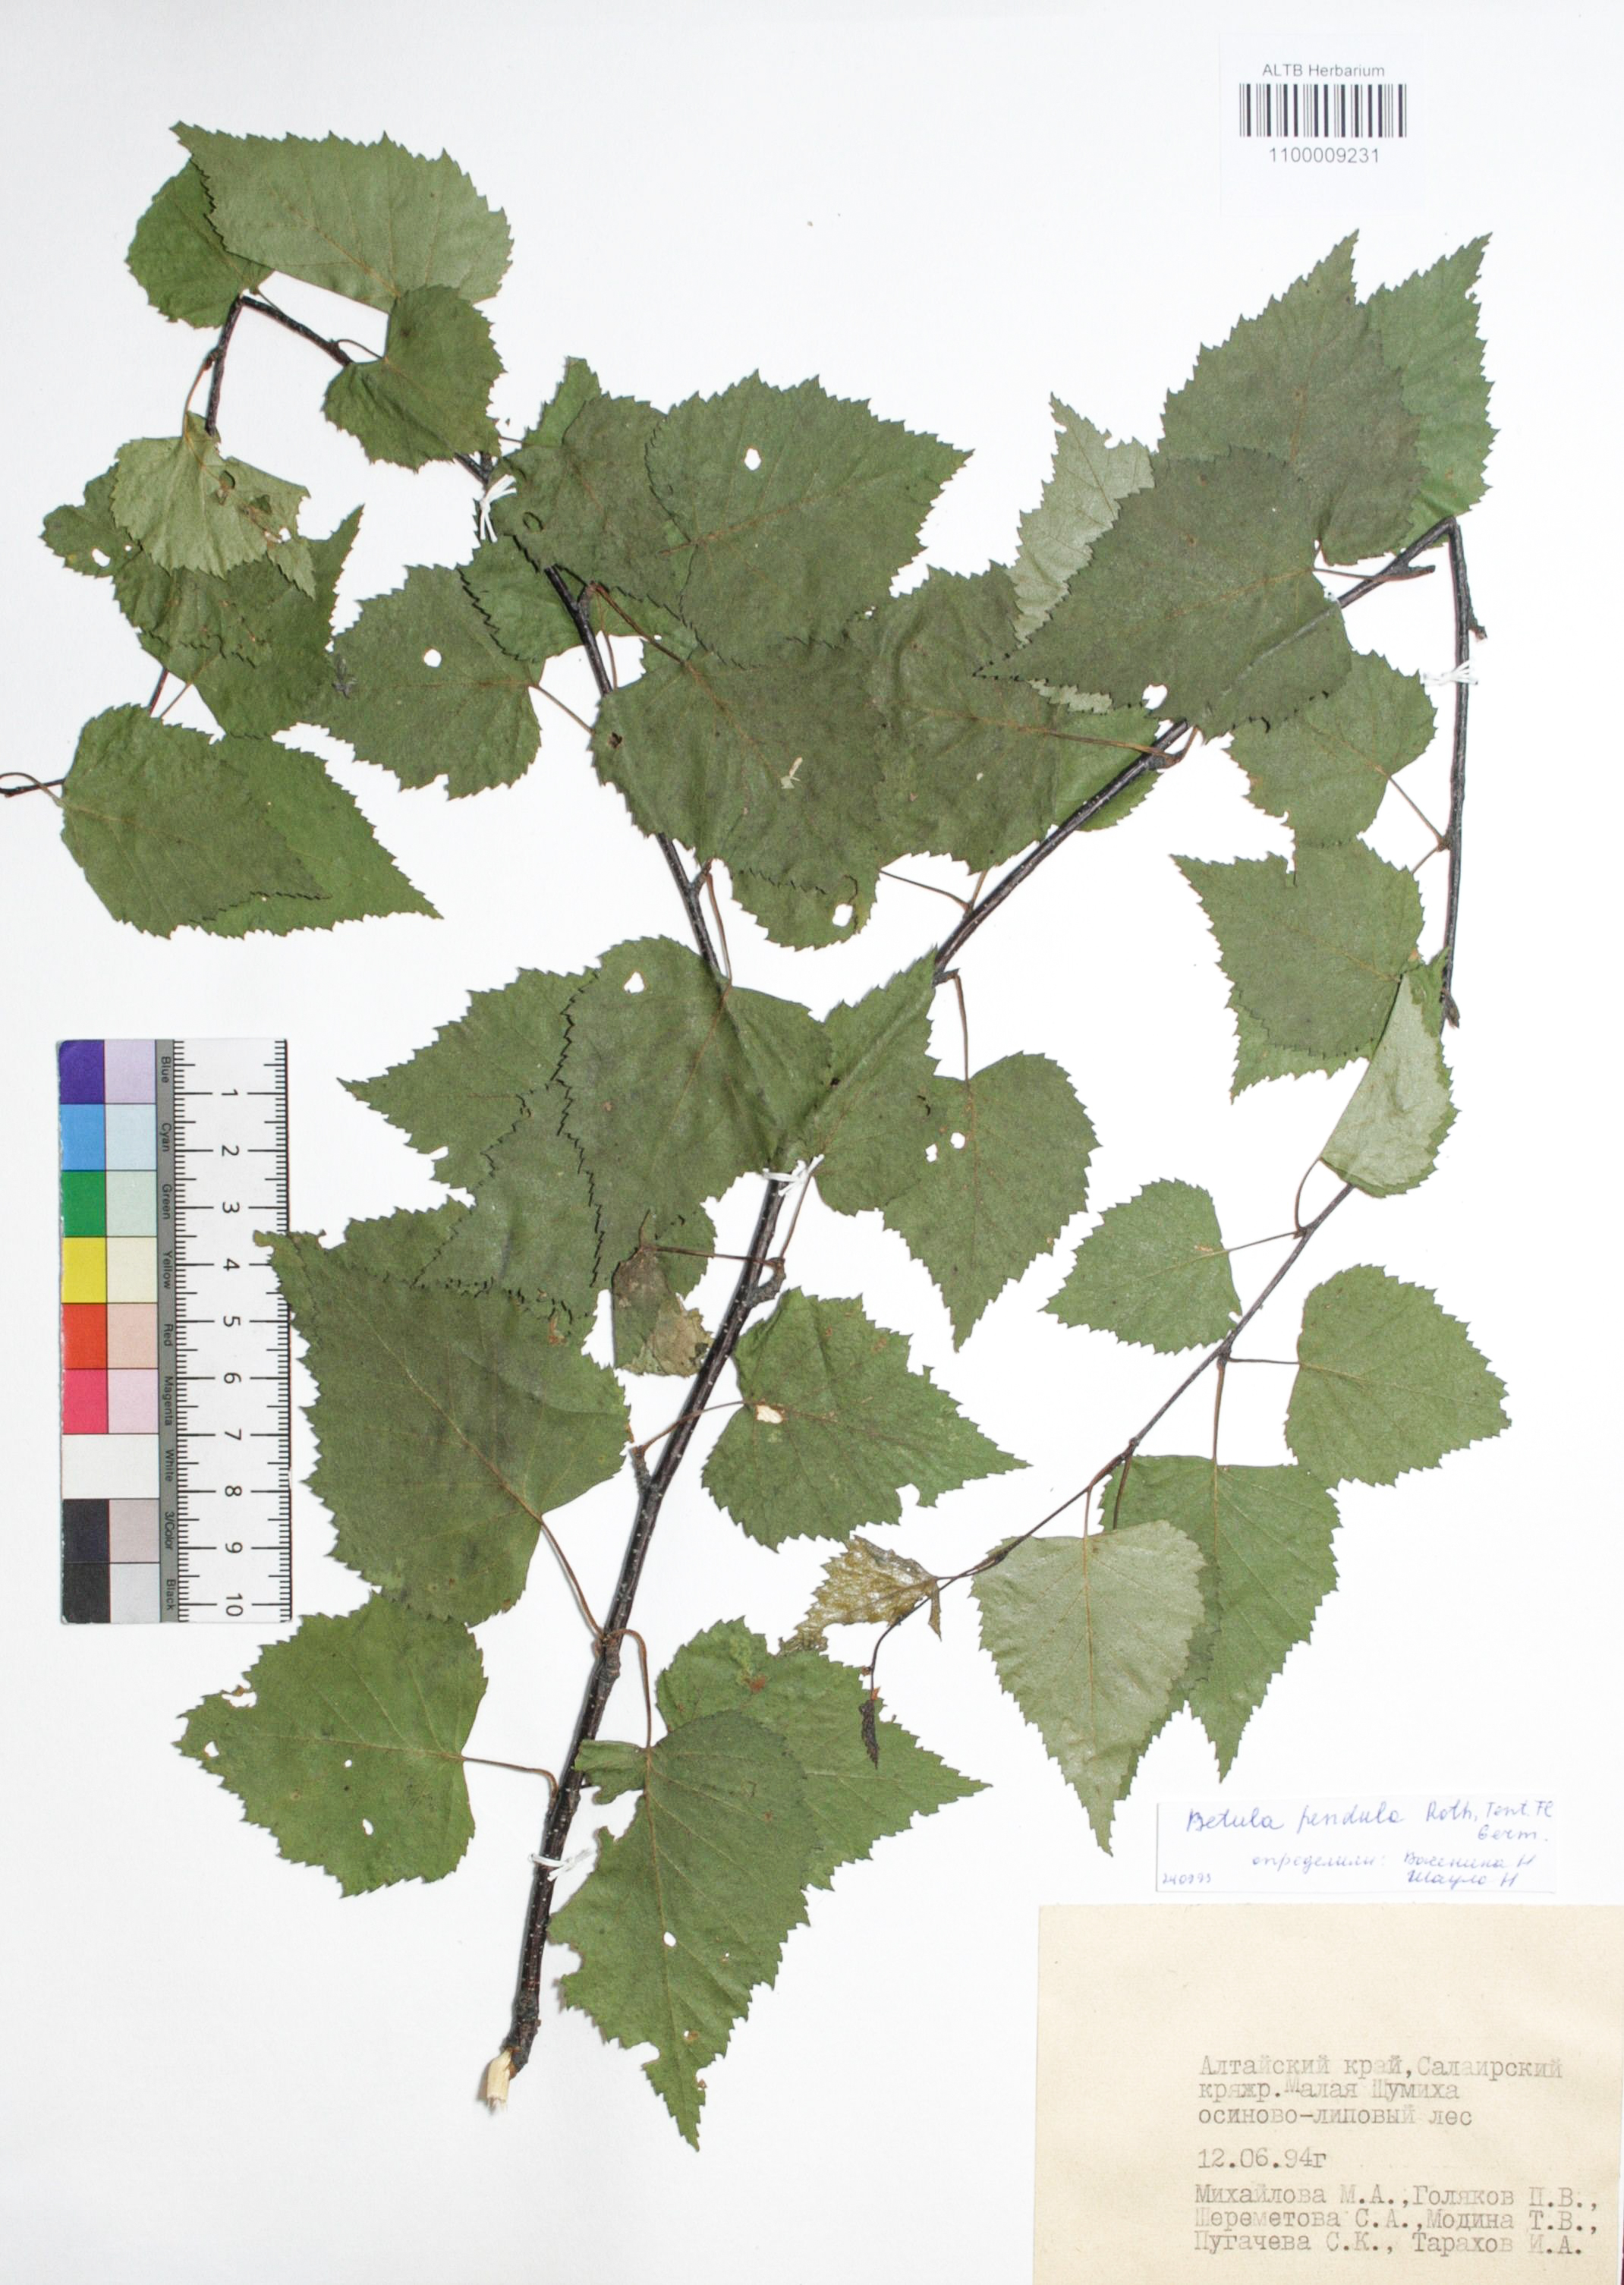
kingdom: Plantae
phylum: Tracheophyta
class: Magnoliopsida
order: Fagales
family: Betulaceae
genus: Betula
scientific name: Betula pendula
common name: Silver birch
